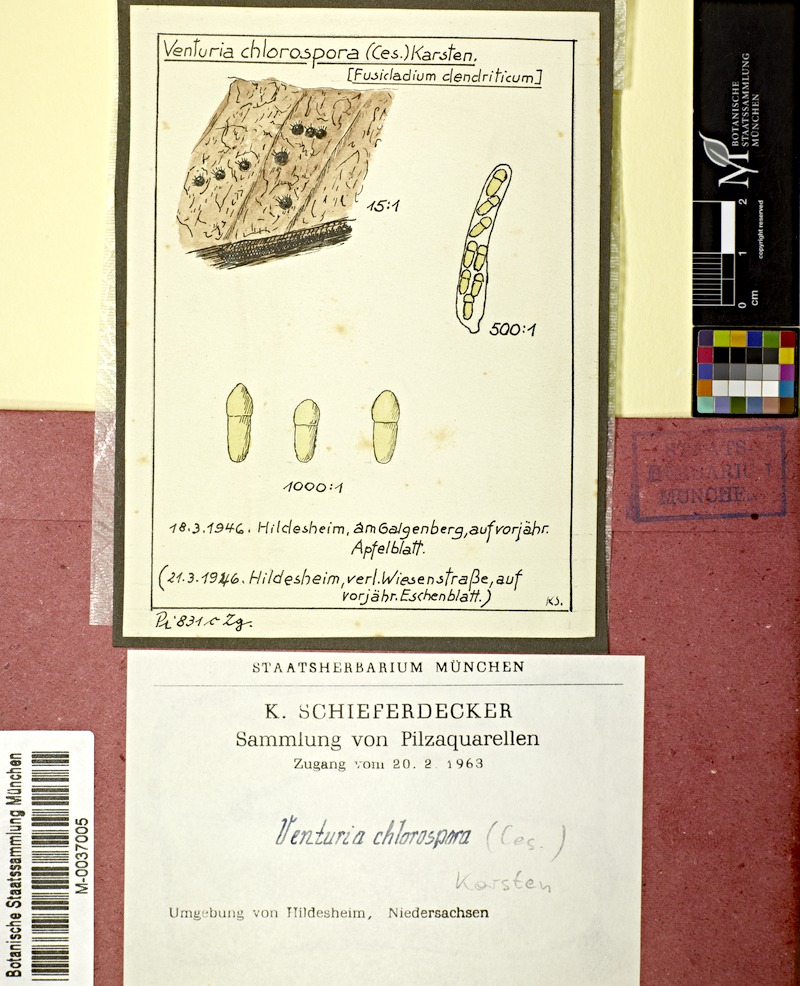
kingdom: Plantae
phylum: Tracheophyta
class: Magnoliopsida
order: Rosales
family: Rosaceae
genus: Malus
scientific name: Malus
